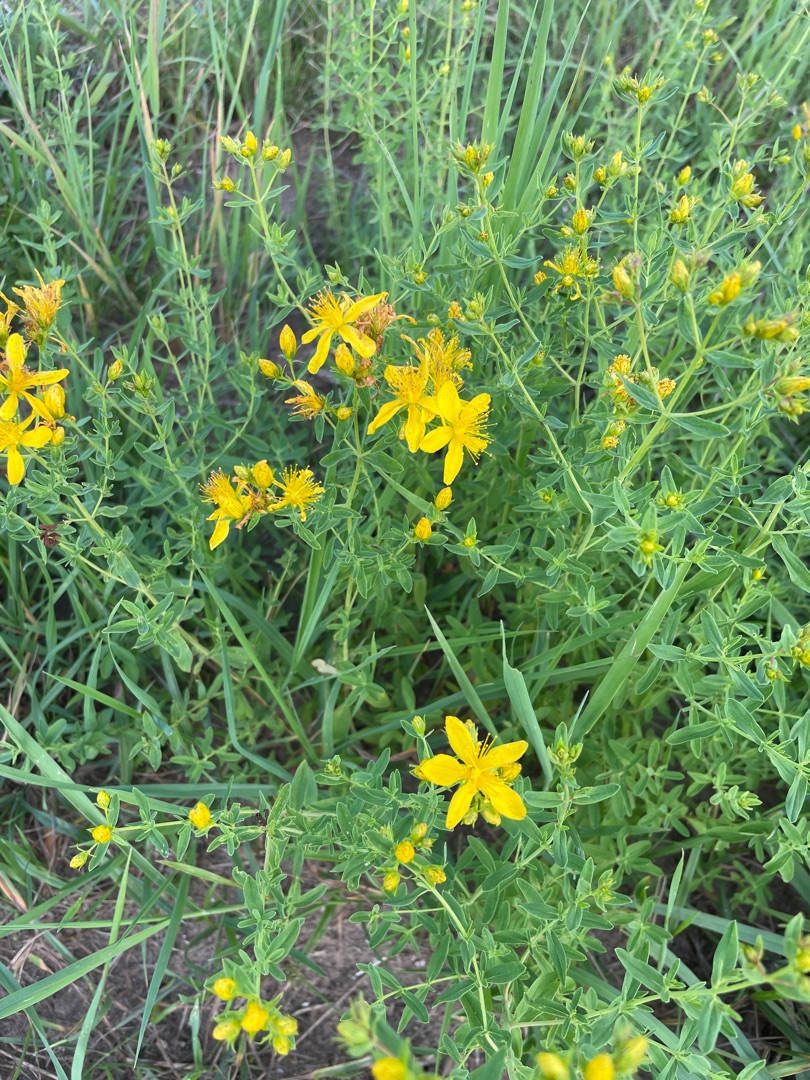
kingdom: Plantae
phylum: Tracheophyta
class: Magnoliopsida
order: Malpighiales
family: Hypericaceae
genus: Hypericum
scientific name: Hypericum perforatum
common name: Prikbladet perikon
